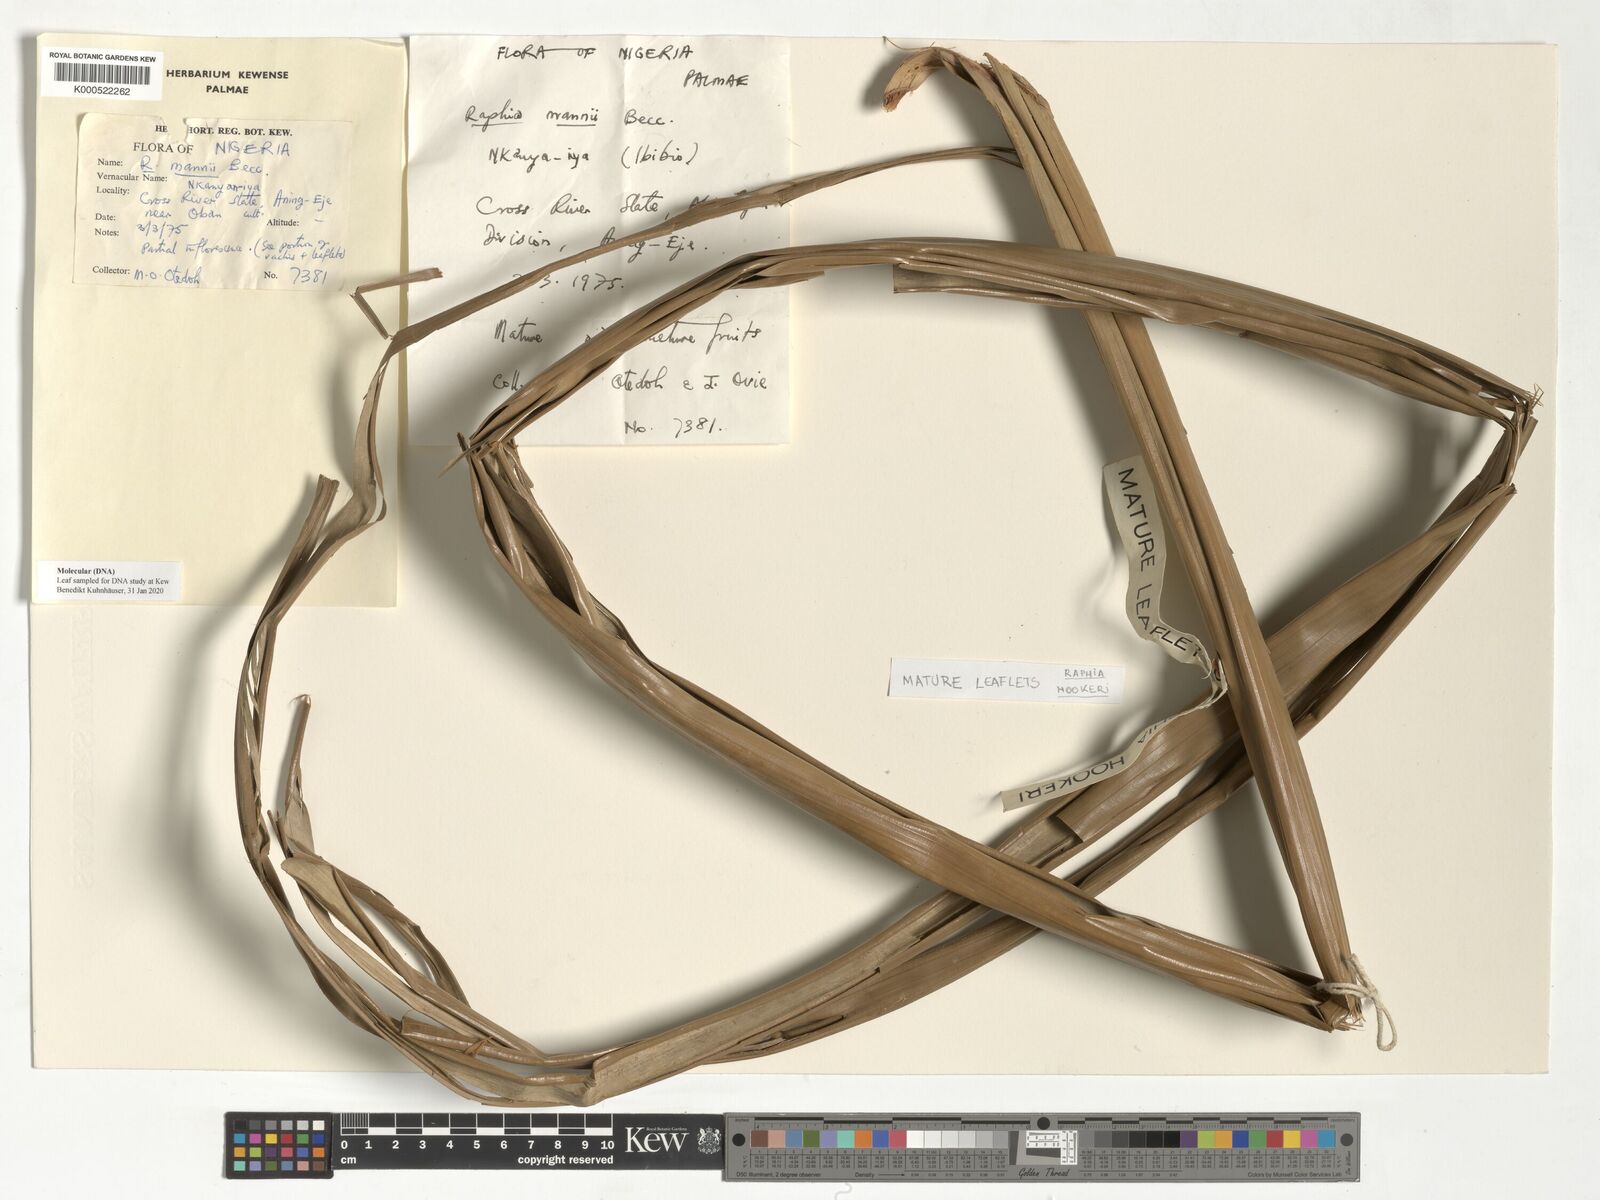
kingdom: Plantae
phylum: Tracheophyta
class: Liliopsida
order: Arecales
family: Arecaceae
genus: Raphia
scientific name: Raphia mannii
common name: Raphia palm
